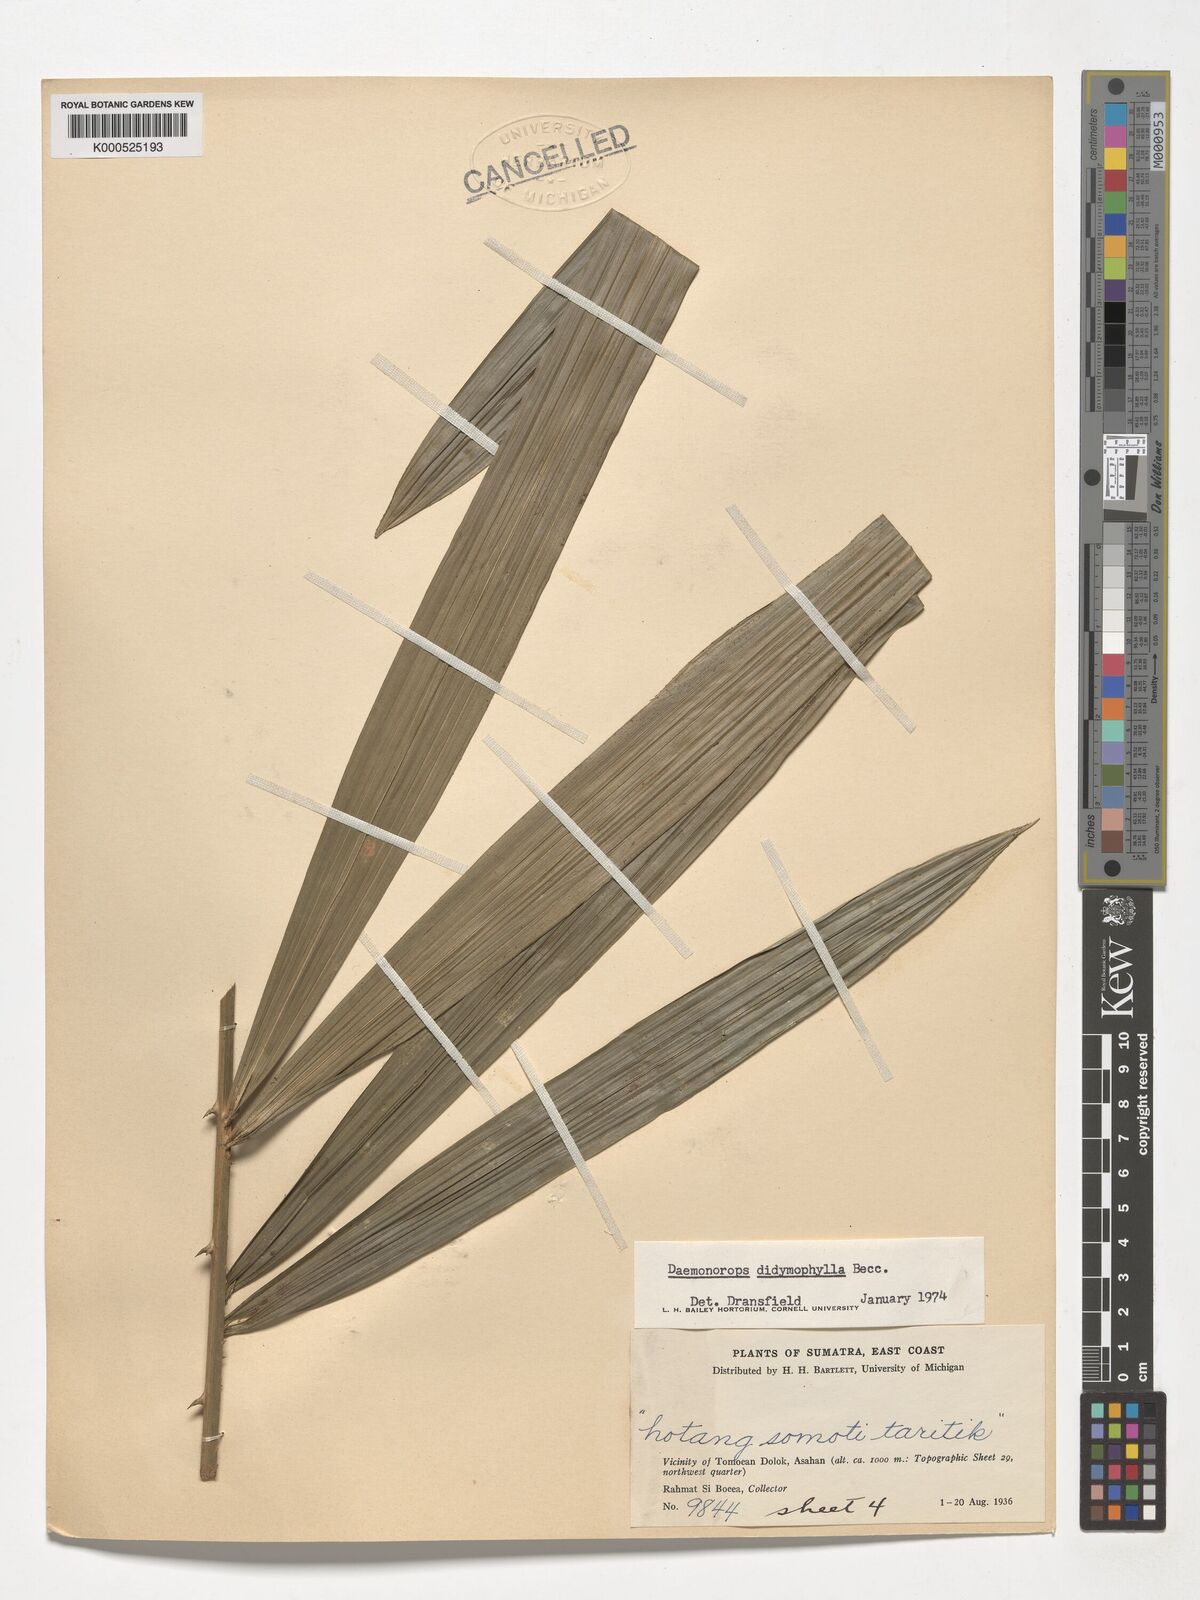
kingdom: Plantae
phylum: Tracheophyta
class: Liliopsida
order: Arecales
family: Arecaceae
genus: Calamus
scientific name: Calamus gracilipes
